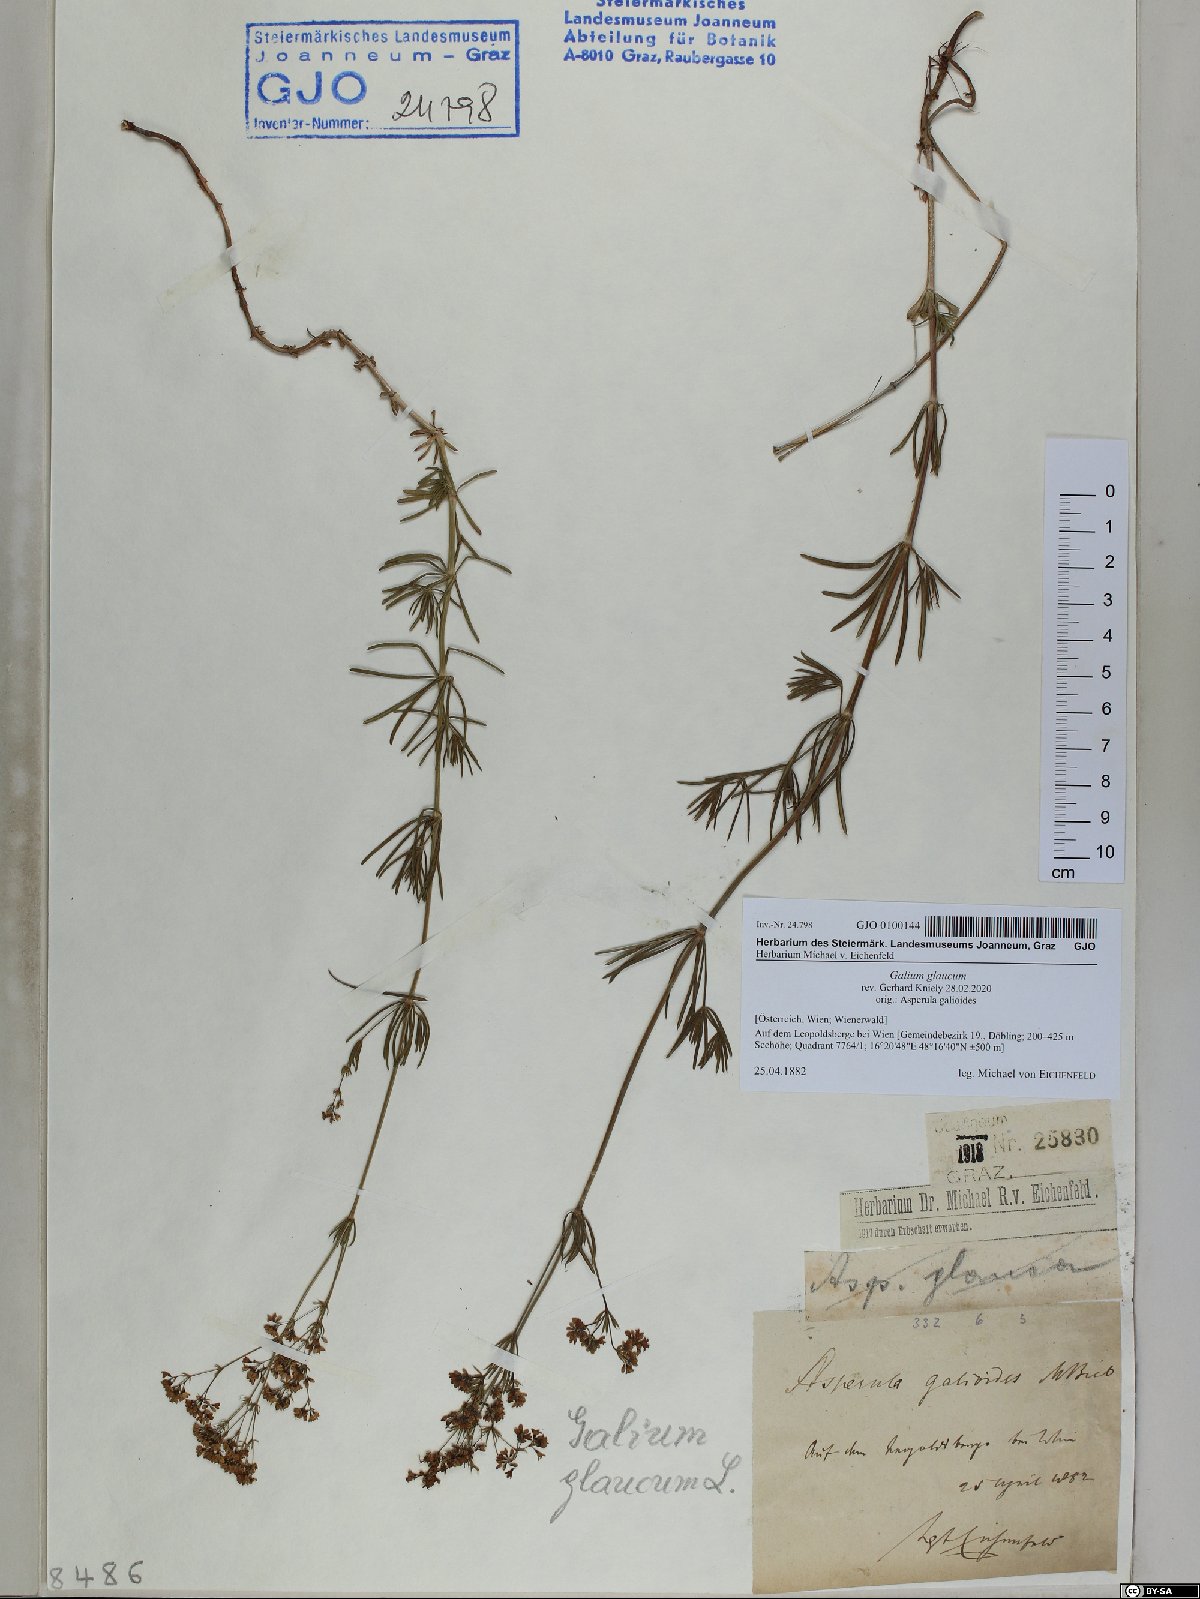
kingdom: Plantae
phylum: Tracheophyta
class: Magnoliopsida
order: Gentianales
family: Rubiaceae
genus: Galium
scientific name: Galium glaucum
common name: Waxy bedstraw
